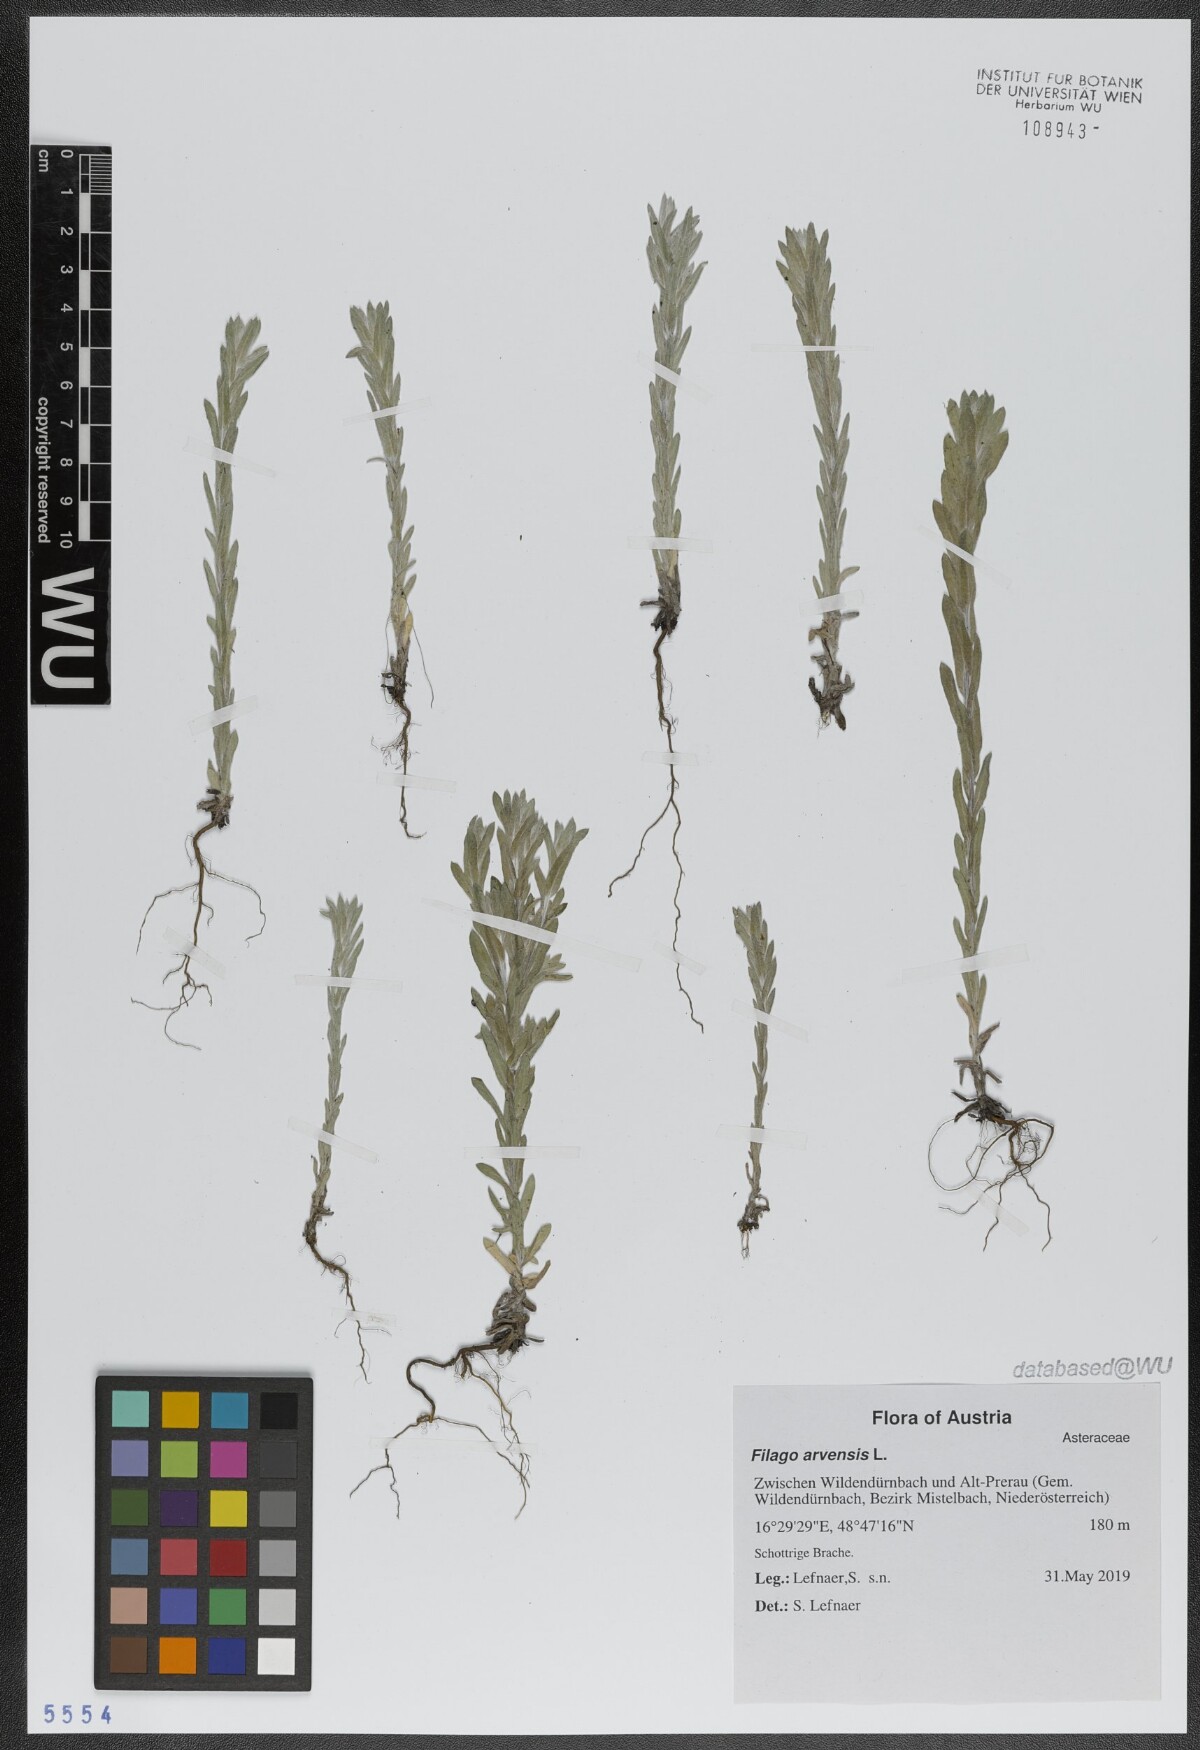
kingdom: Plantae
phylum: Tracheophyta
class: Magnoliopsida
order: Asterales
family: Asteraceae
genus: Filago
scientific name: Filago arvensis
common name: Field cudweed
